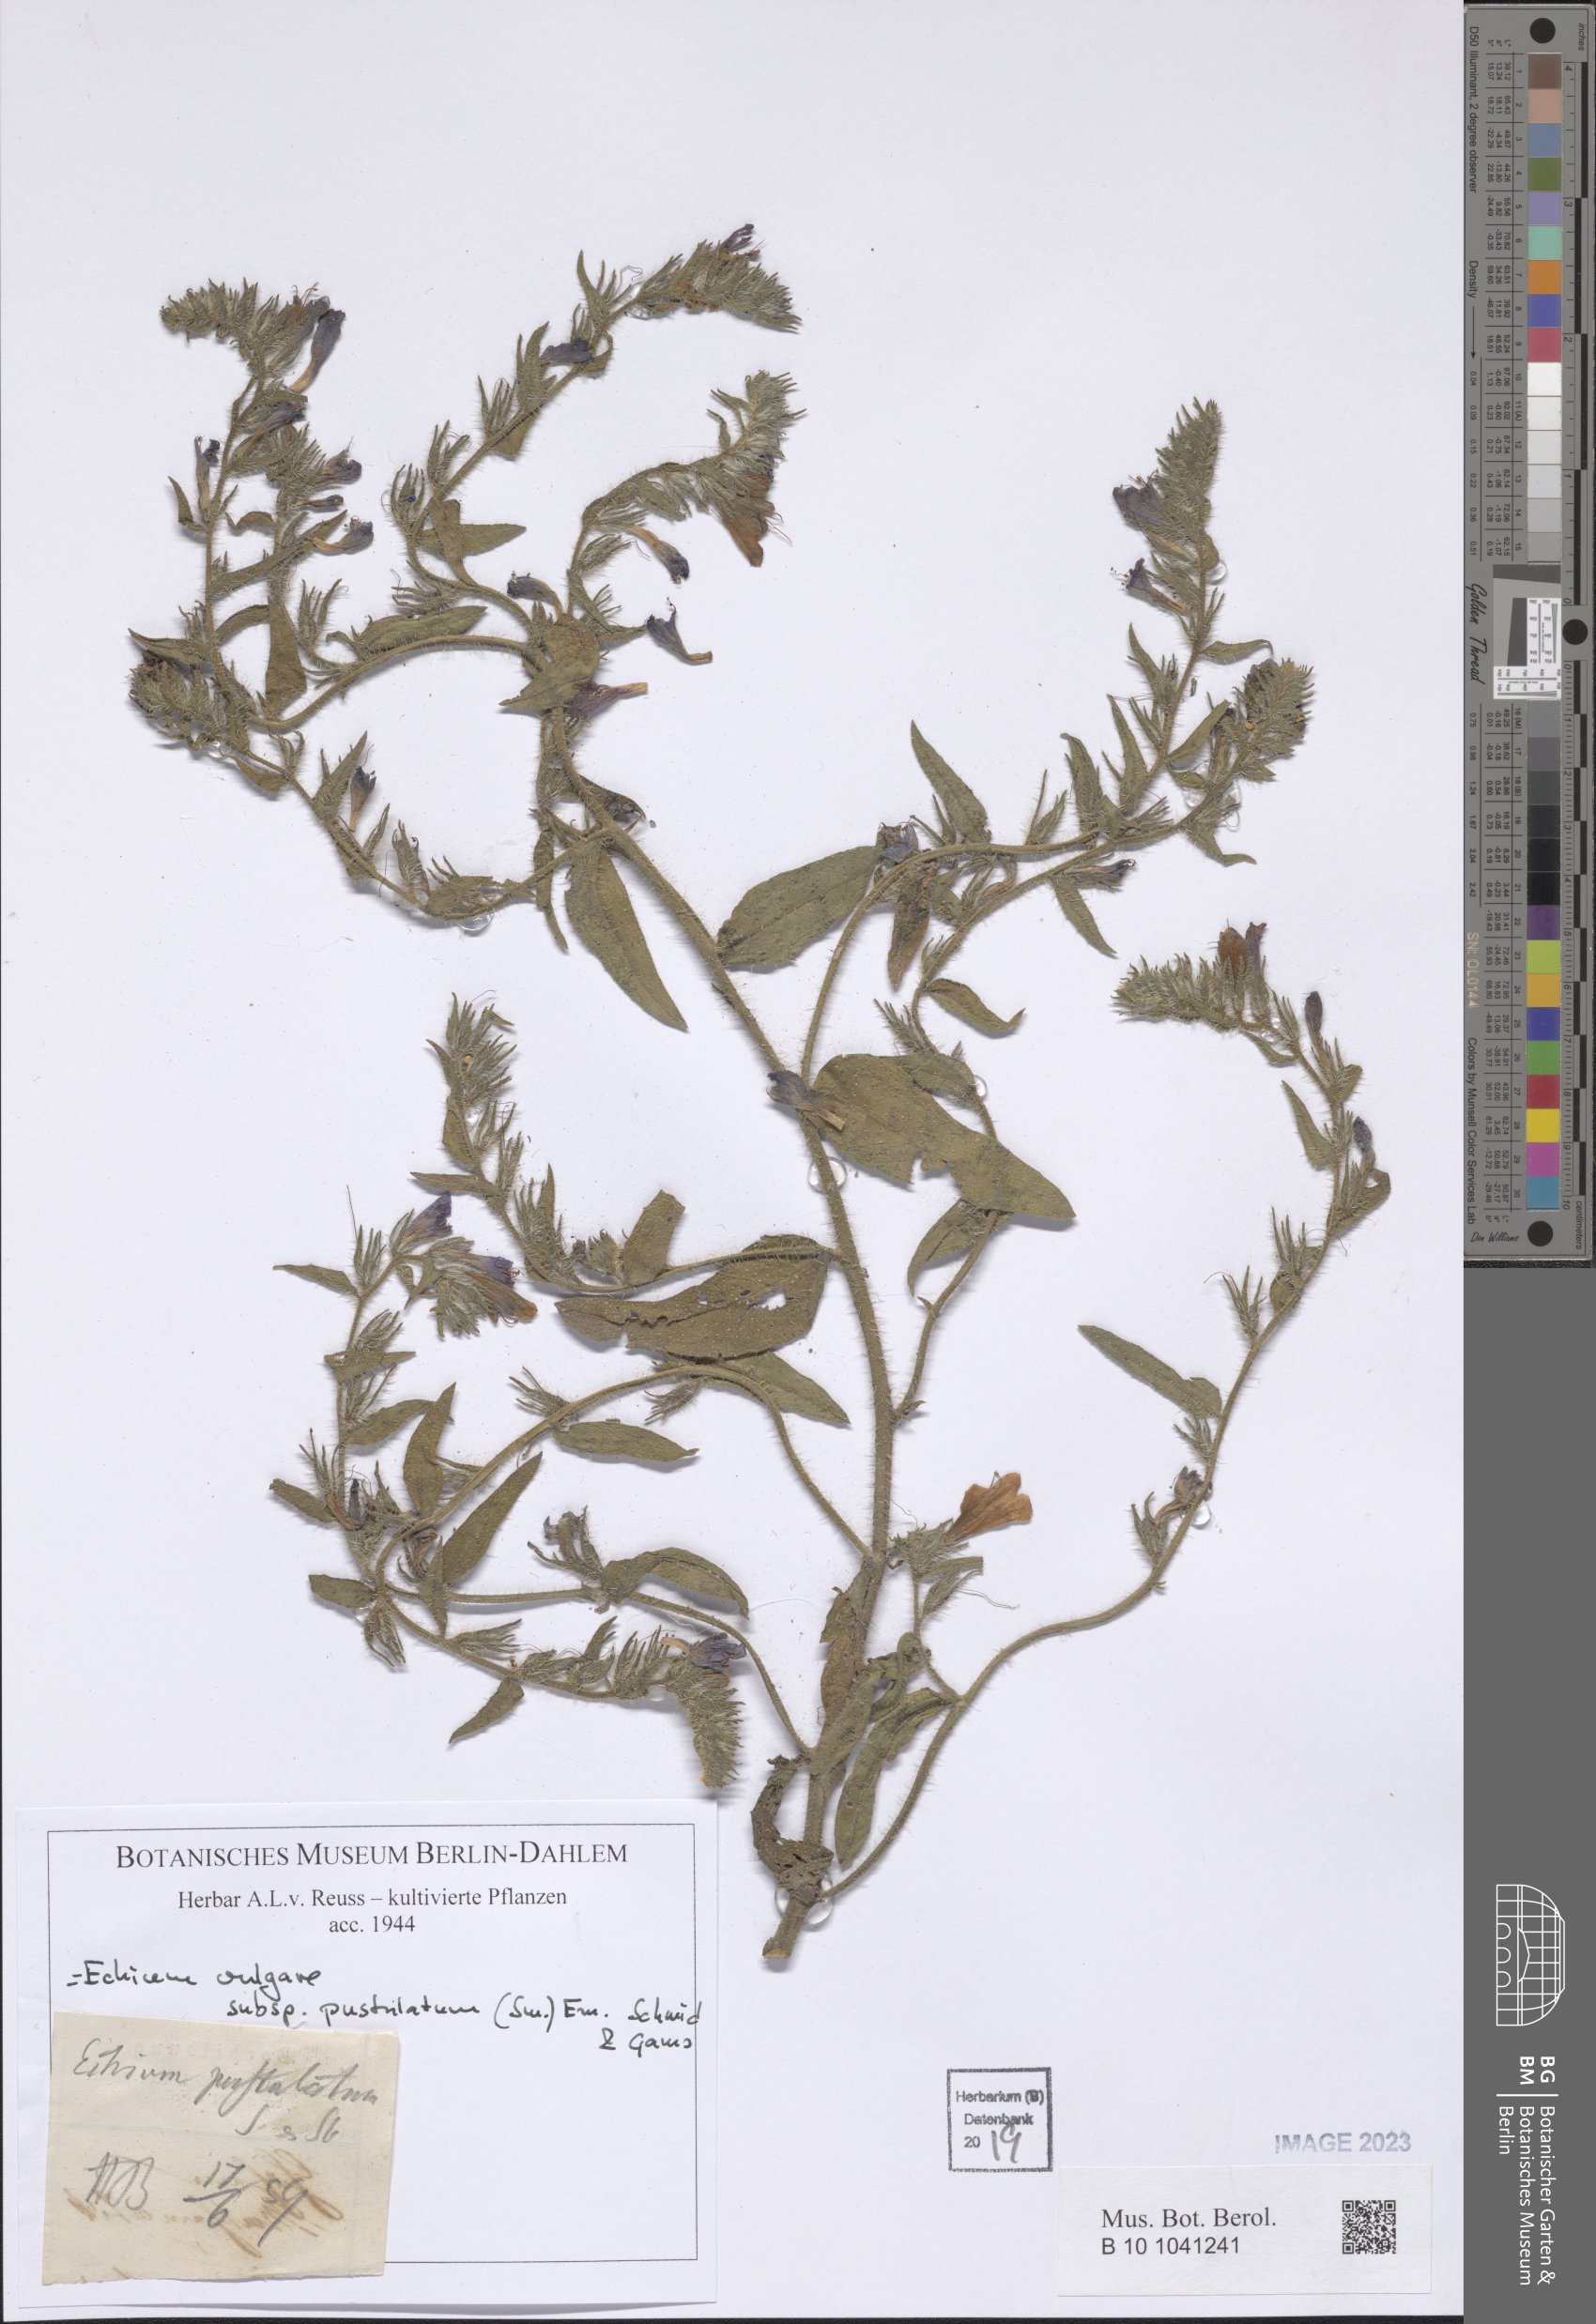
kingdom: Plantae
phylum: Tracheophyta
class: Magnoliopsida
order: Boraginales
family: Boraginaceae
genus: Echium
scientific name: Echium vulgare
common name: Common viper's bugloss
